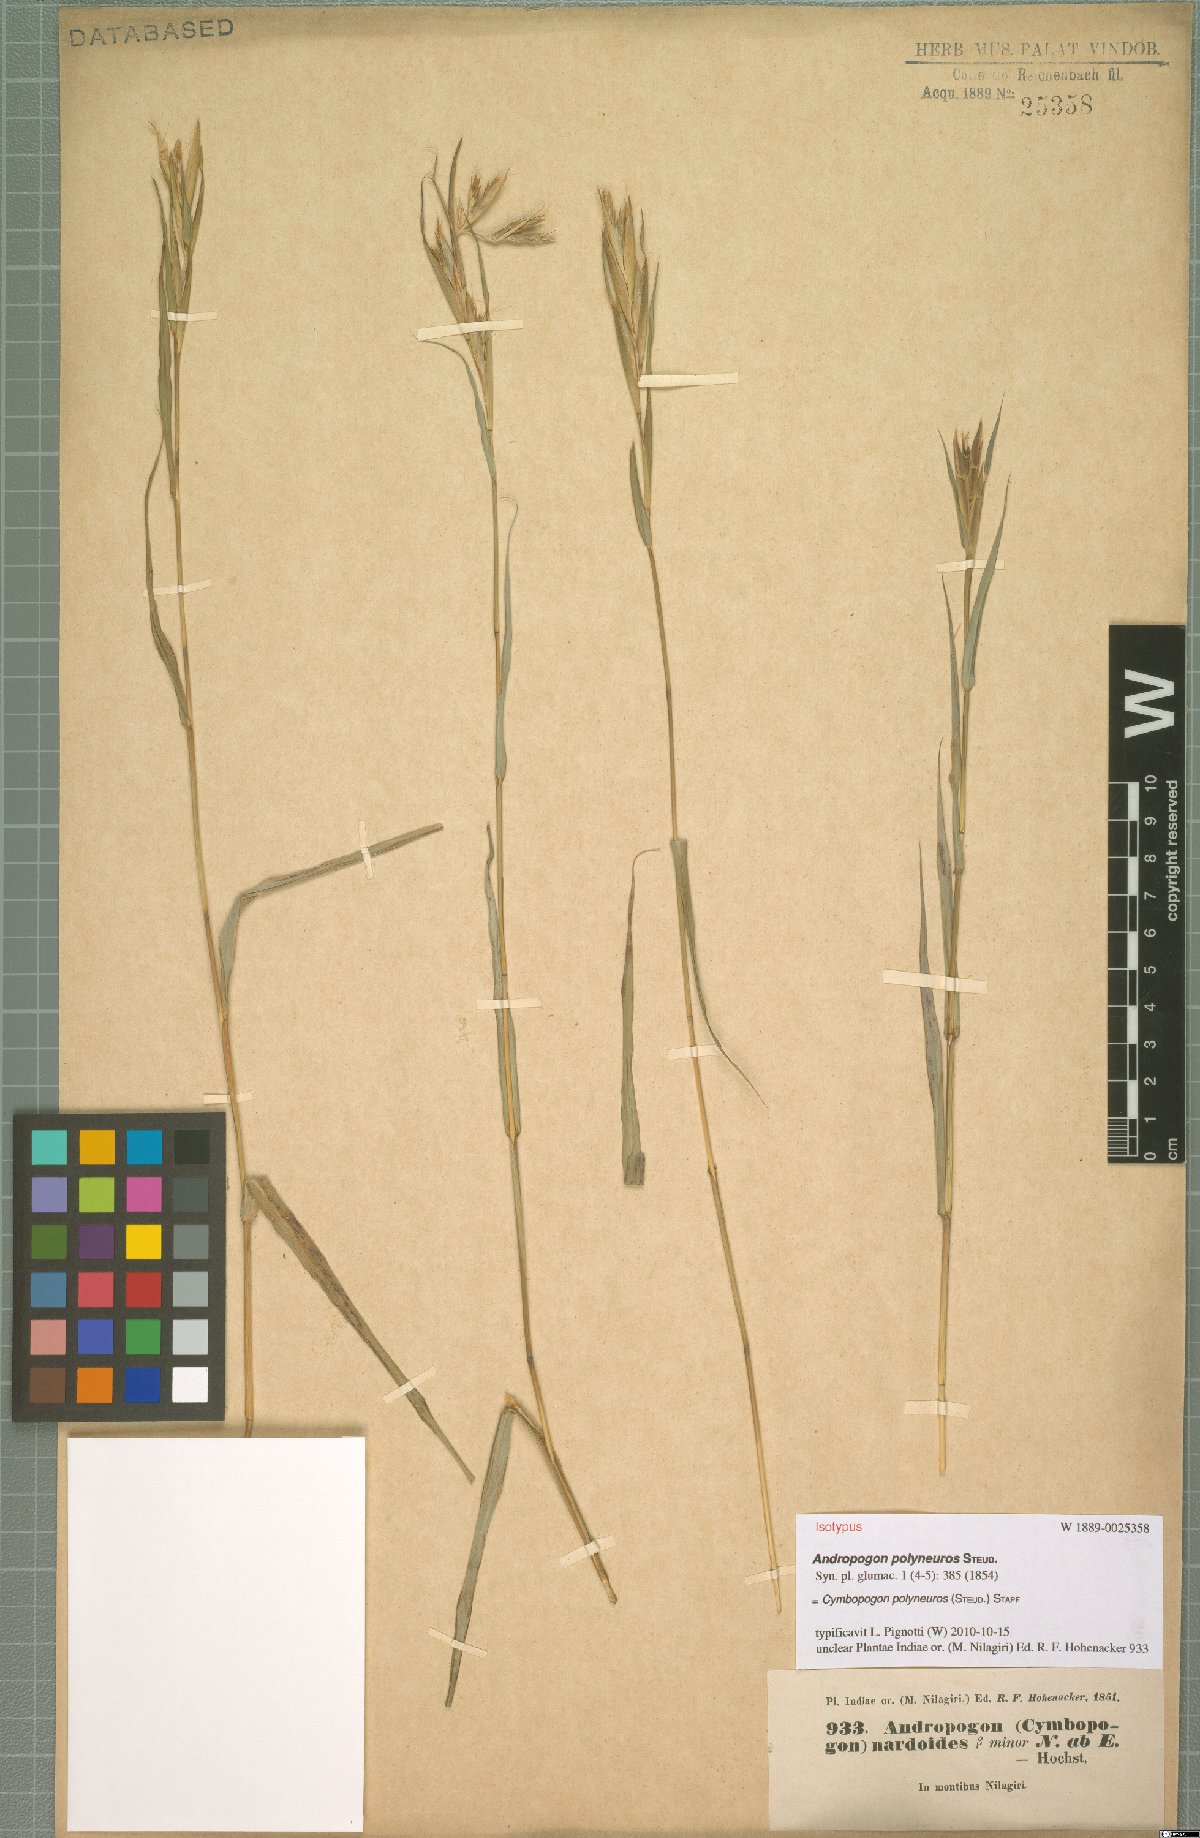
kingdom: Plantae
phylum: Tracheophyta
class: Liliopsida
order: Poales
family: Poaceae
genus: Cymbopogon
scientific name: Cymbopogon polyneuros
